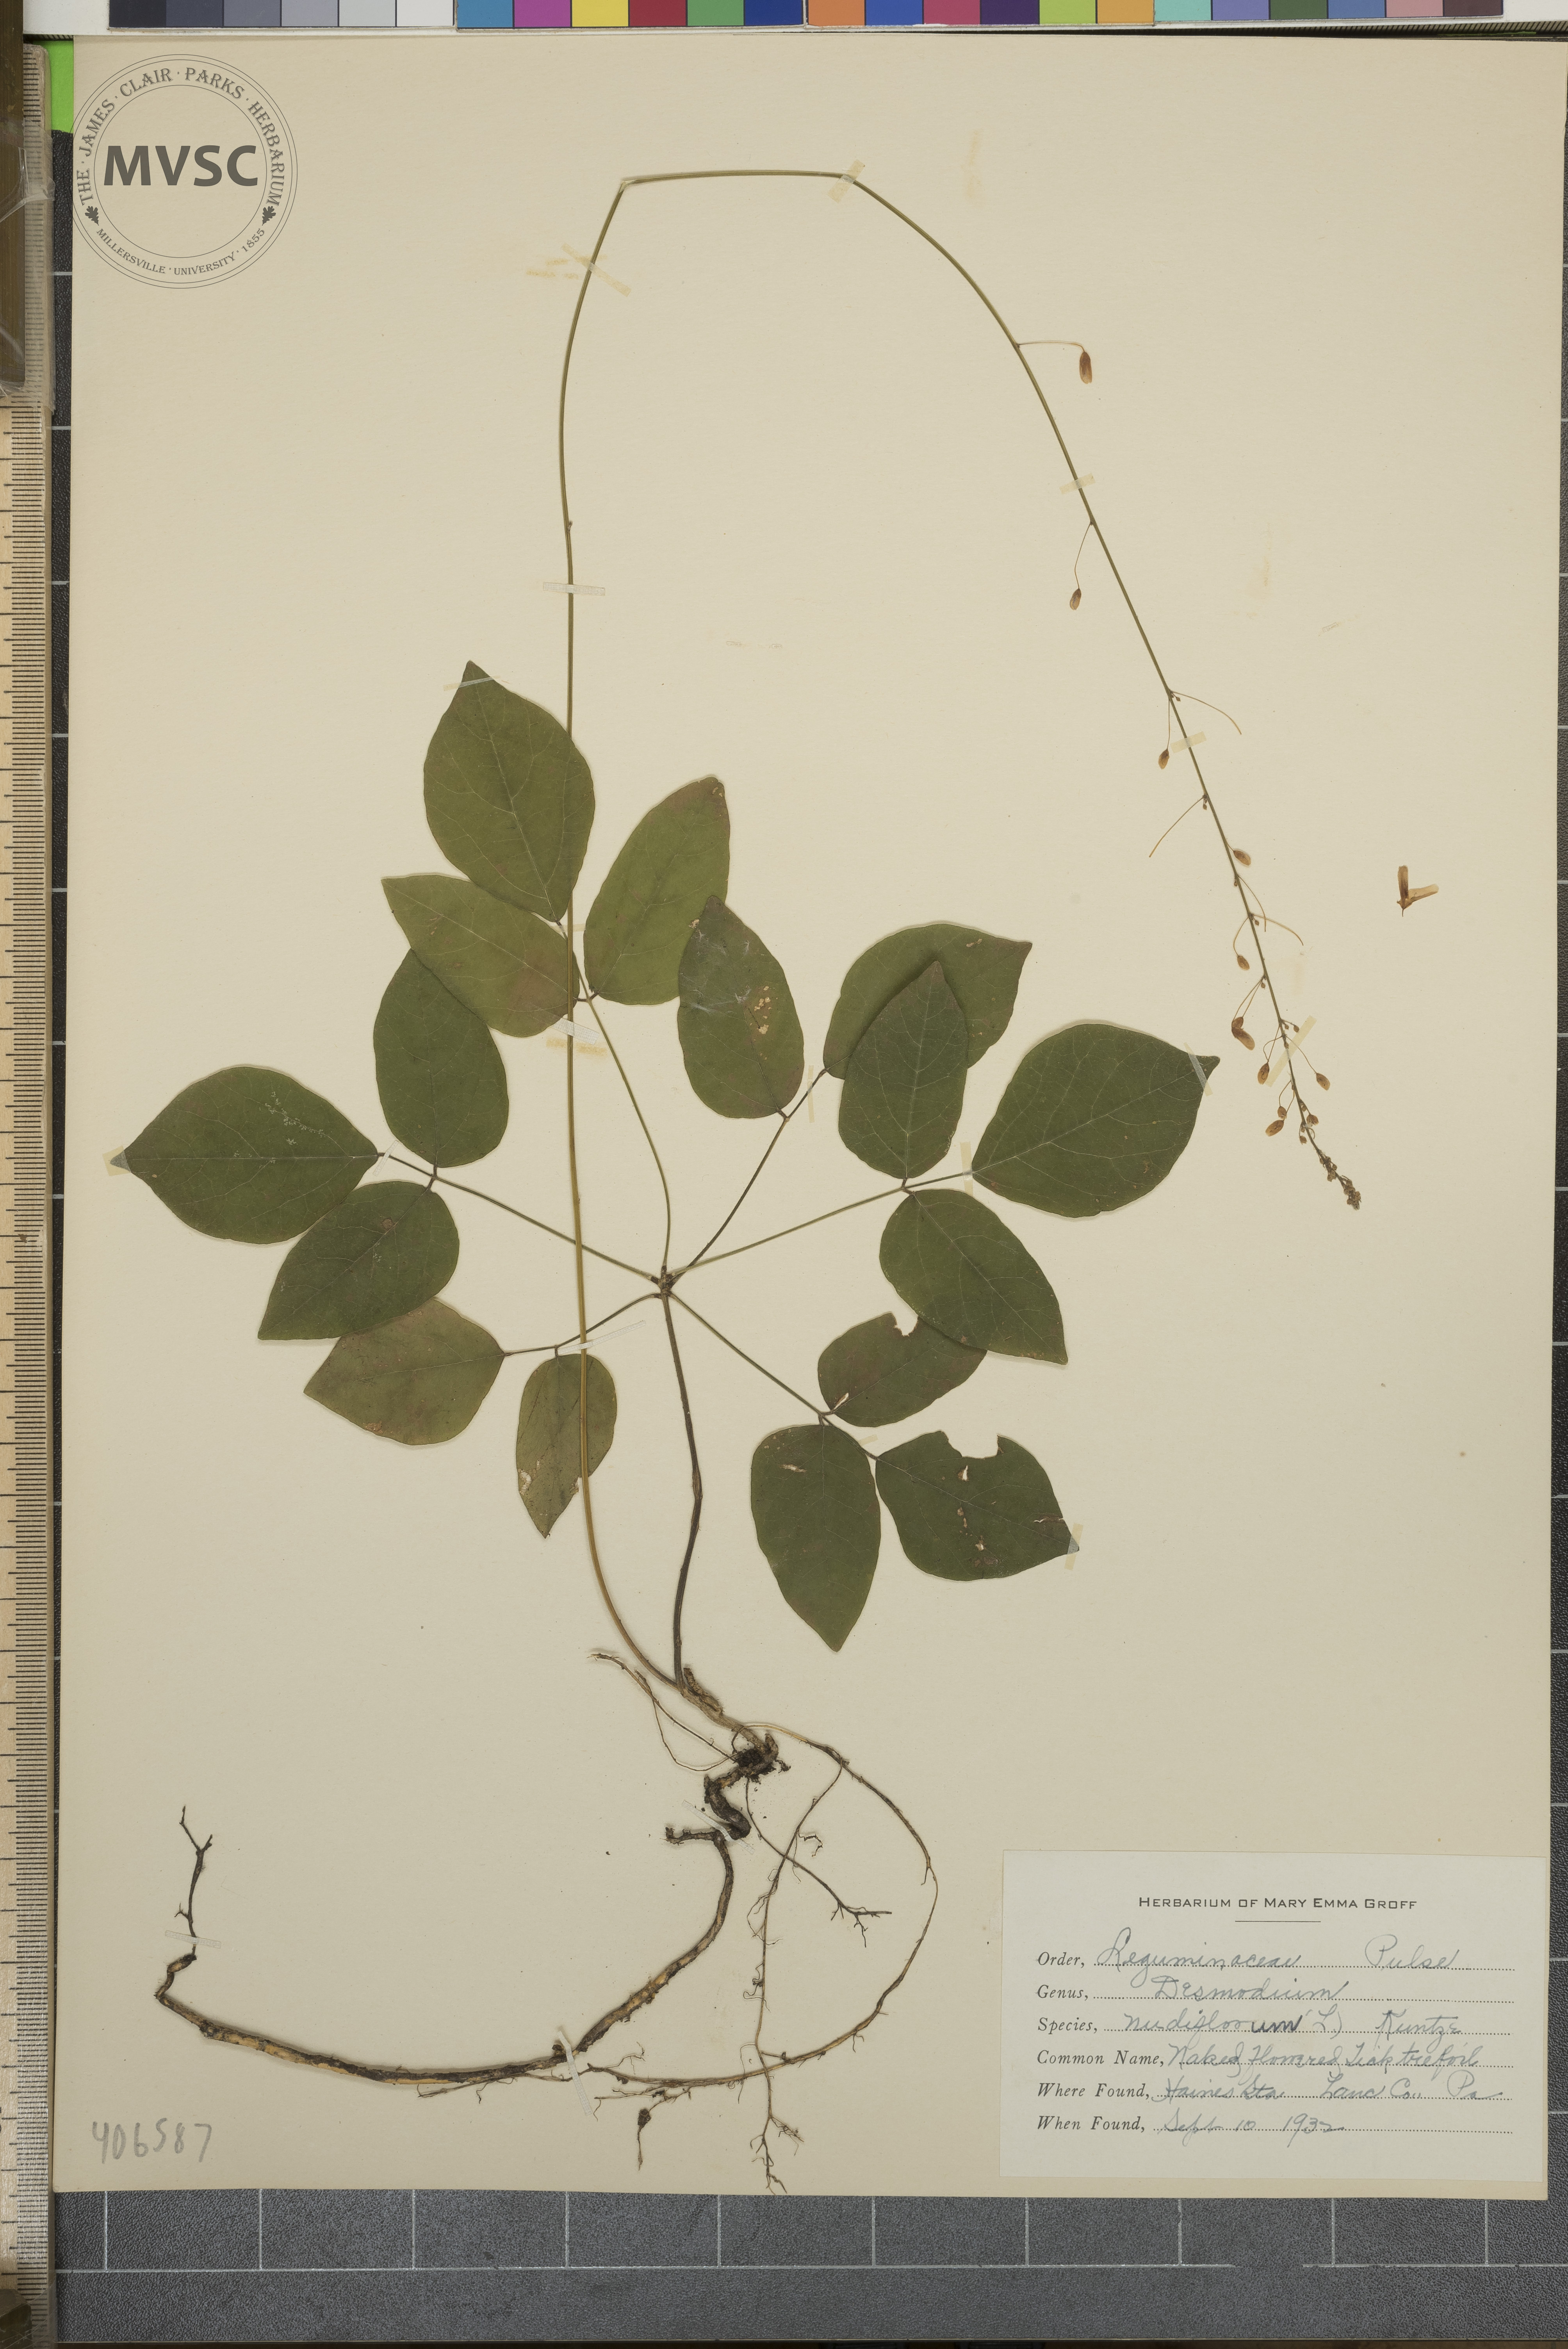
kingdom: Plantae
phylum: Tracheophyta
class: Magnoliopsida
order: Fabales
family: Fabaceae
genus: Hylodesmum
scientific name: Hylodesmum nudiflorum
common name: Naked-flowered Tick-trefoil
